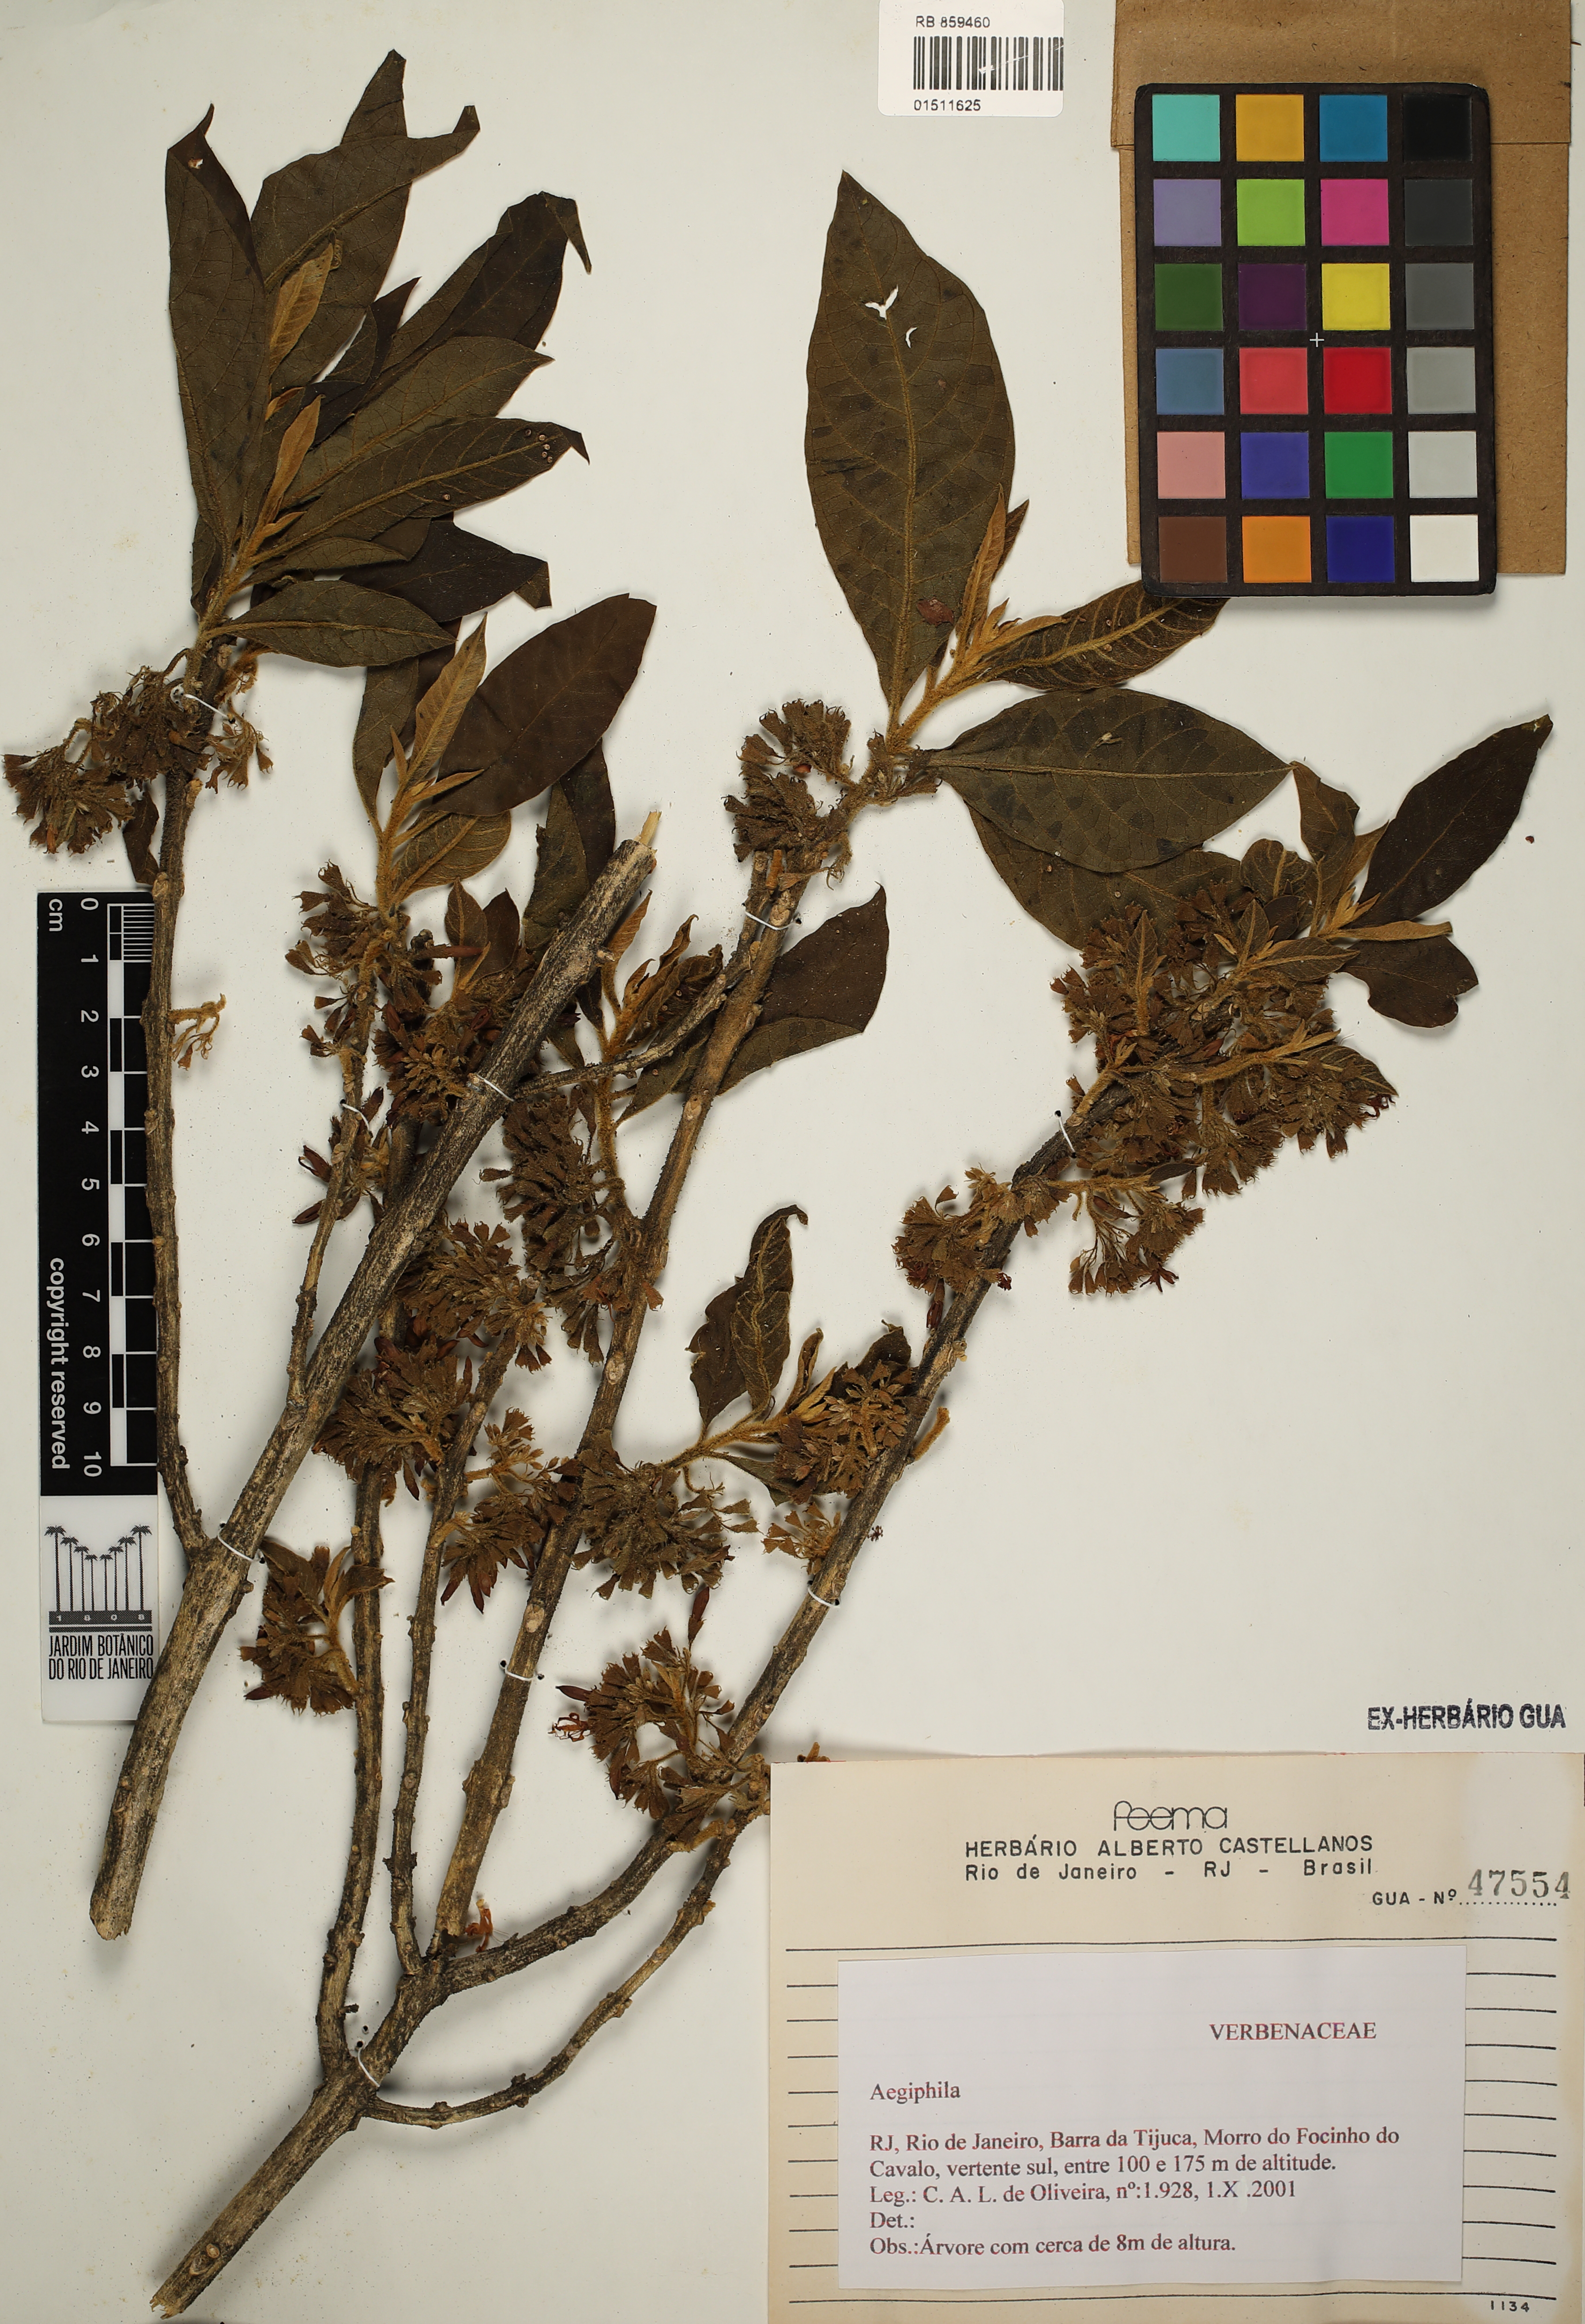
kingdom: Plantae
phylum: Tracheophyta
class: Magnoliopsida
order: Lamiales
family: Lamiaceae
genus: Aegiphila
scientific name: Aegiphila
